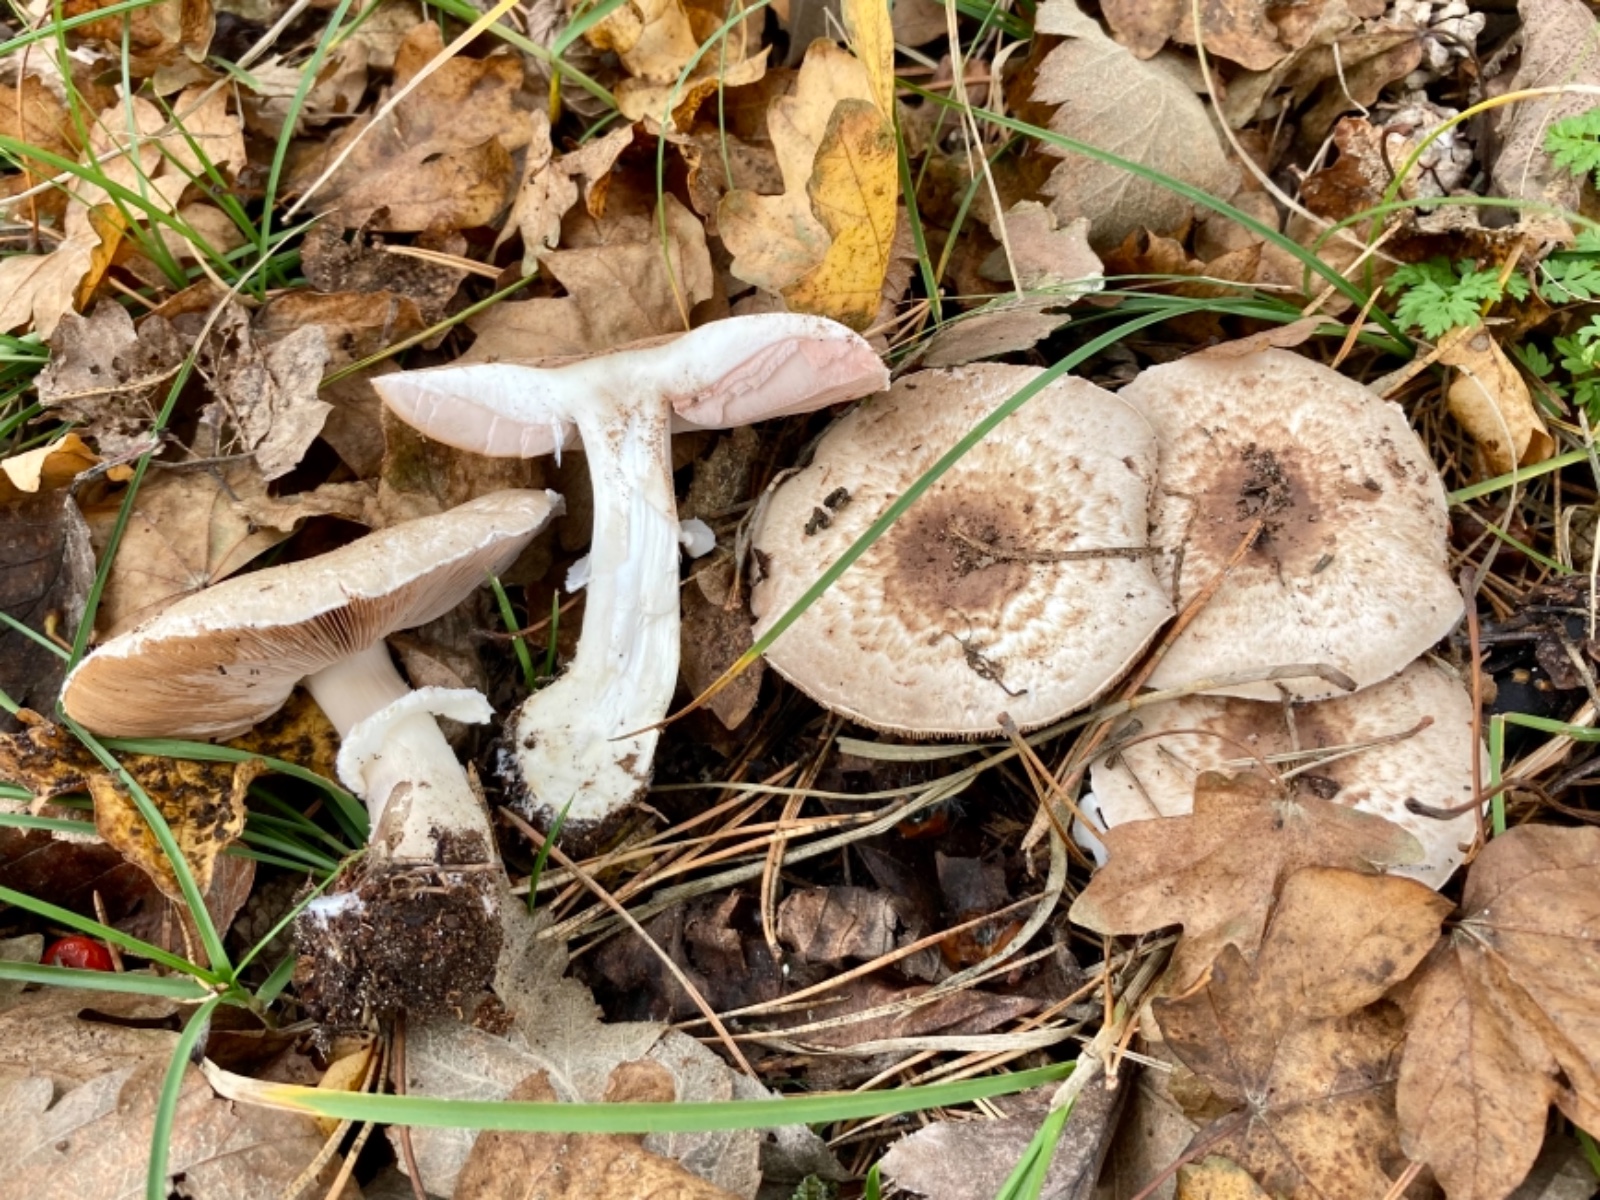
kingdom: Fungi
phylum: Basidiomycota
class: Agaricomycetes
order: Agaricales
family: Agaricaceae
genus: Agaricus
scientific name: Agaricus impudicus
